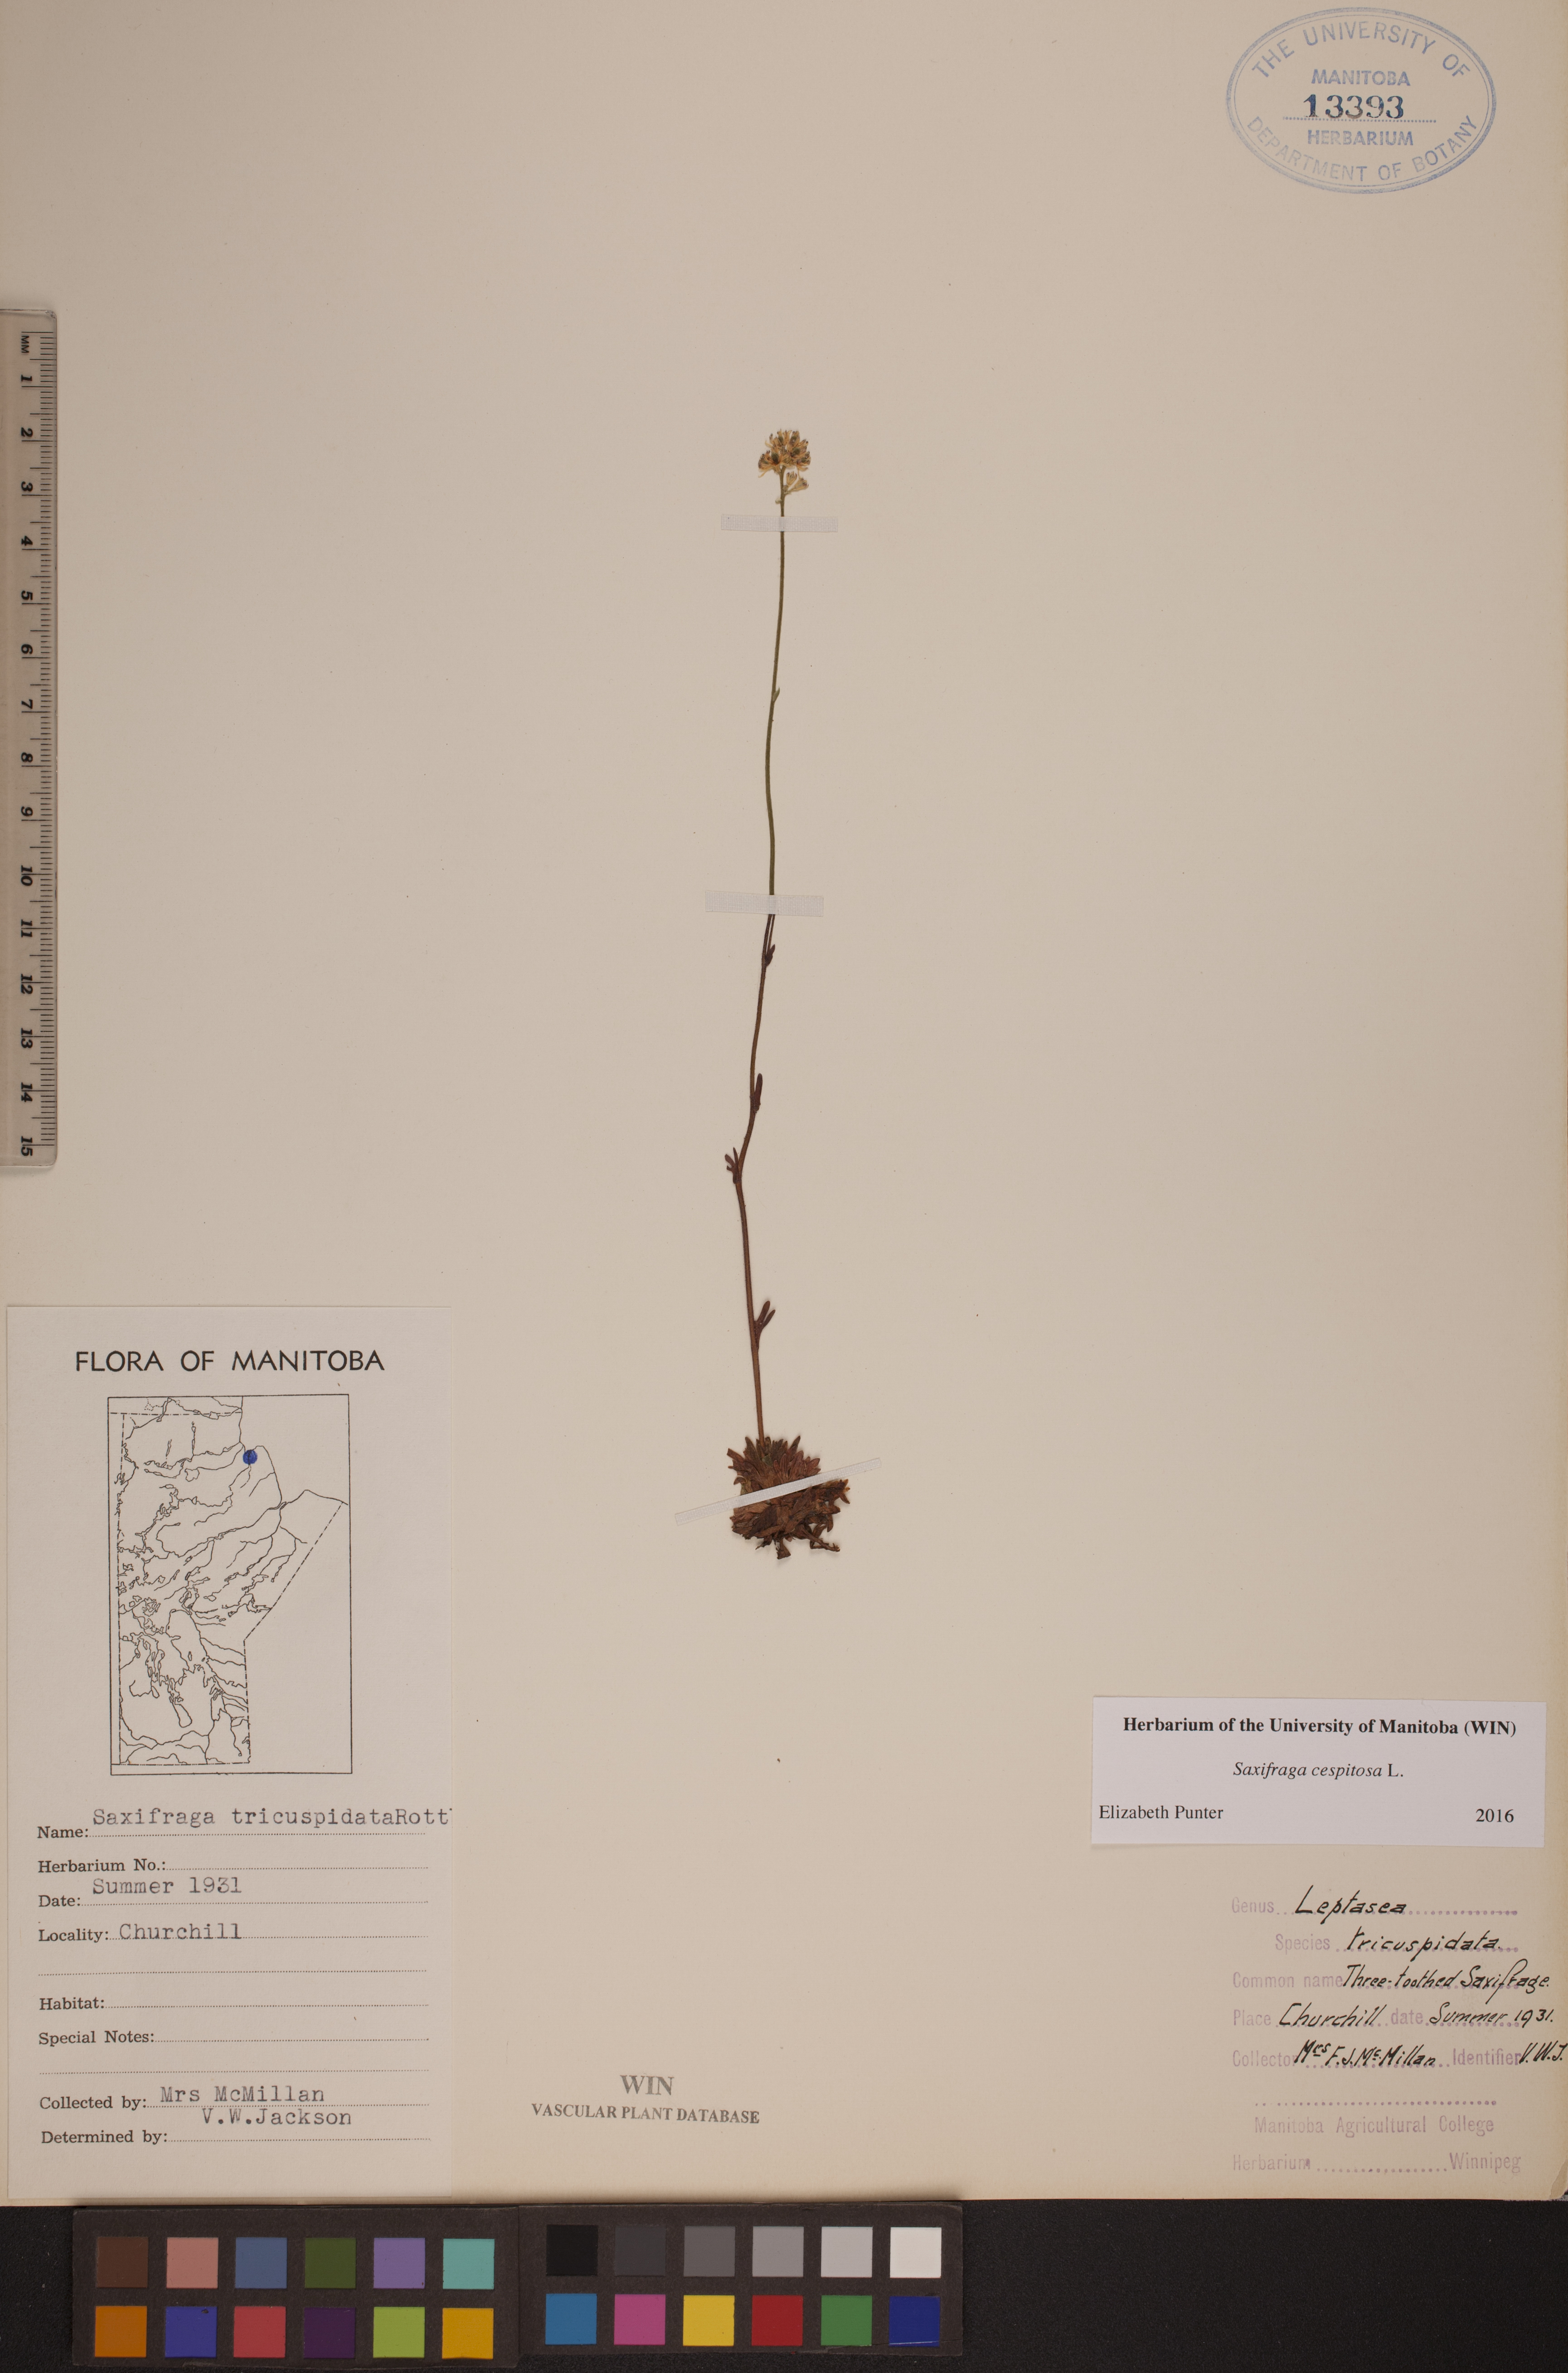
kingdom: Plantae
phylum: Tracheophyta
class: Magnoliopsida
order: Saxifragales
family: Saxifragaceae
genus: Saxifraga
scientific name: Saxifraga cespitosa
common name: Tufted saxifrage
